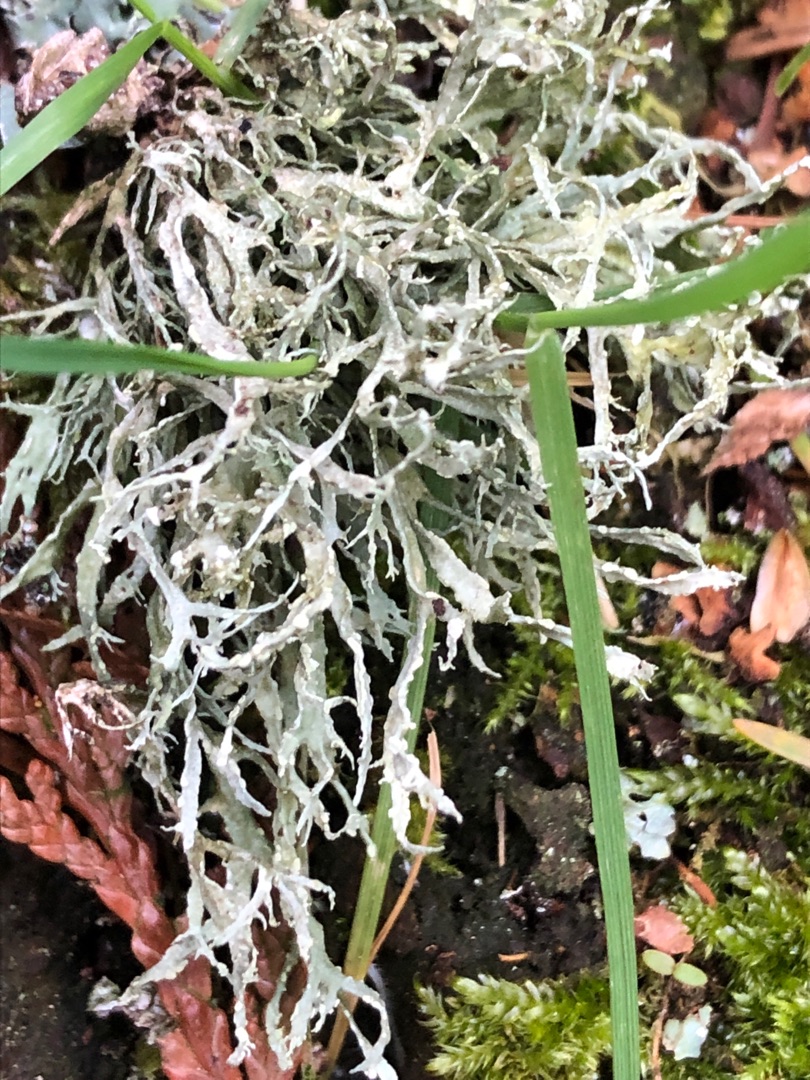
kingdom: Fungi
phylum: Ascomycota
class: Lecanoromycetes
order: Lecanorales
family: Ramalinaceae
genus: Ramalina
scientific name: Ramalina farinacea
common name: Melet grenlav
